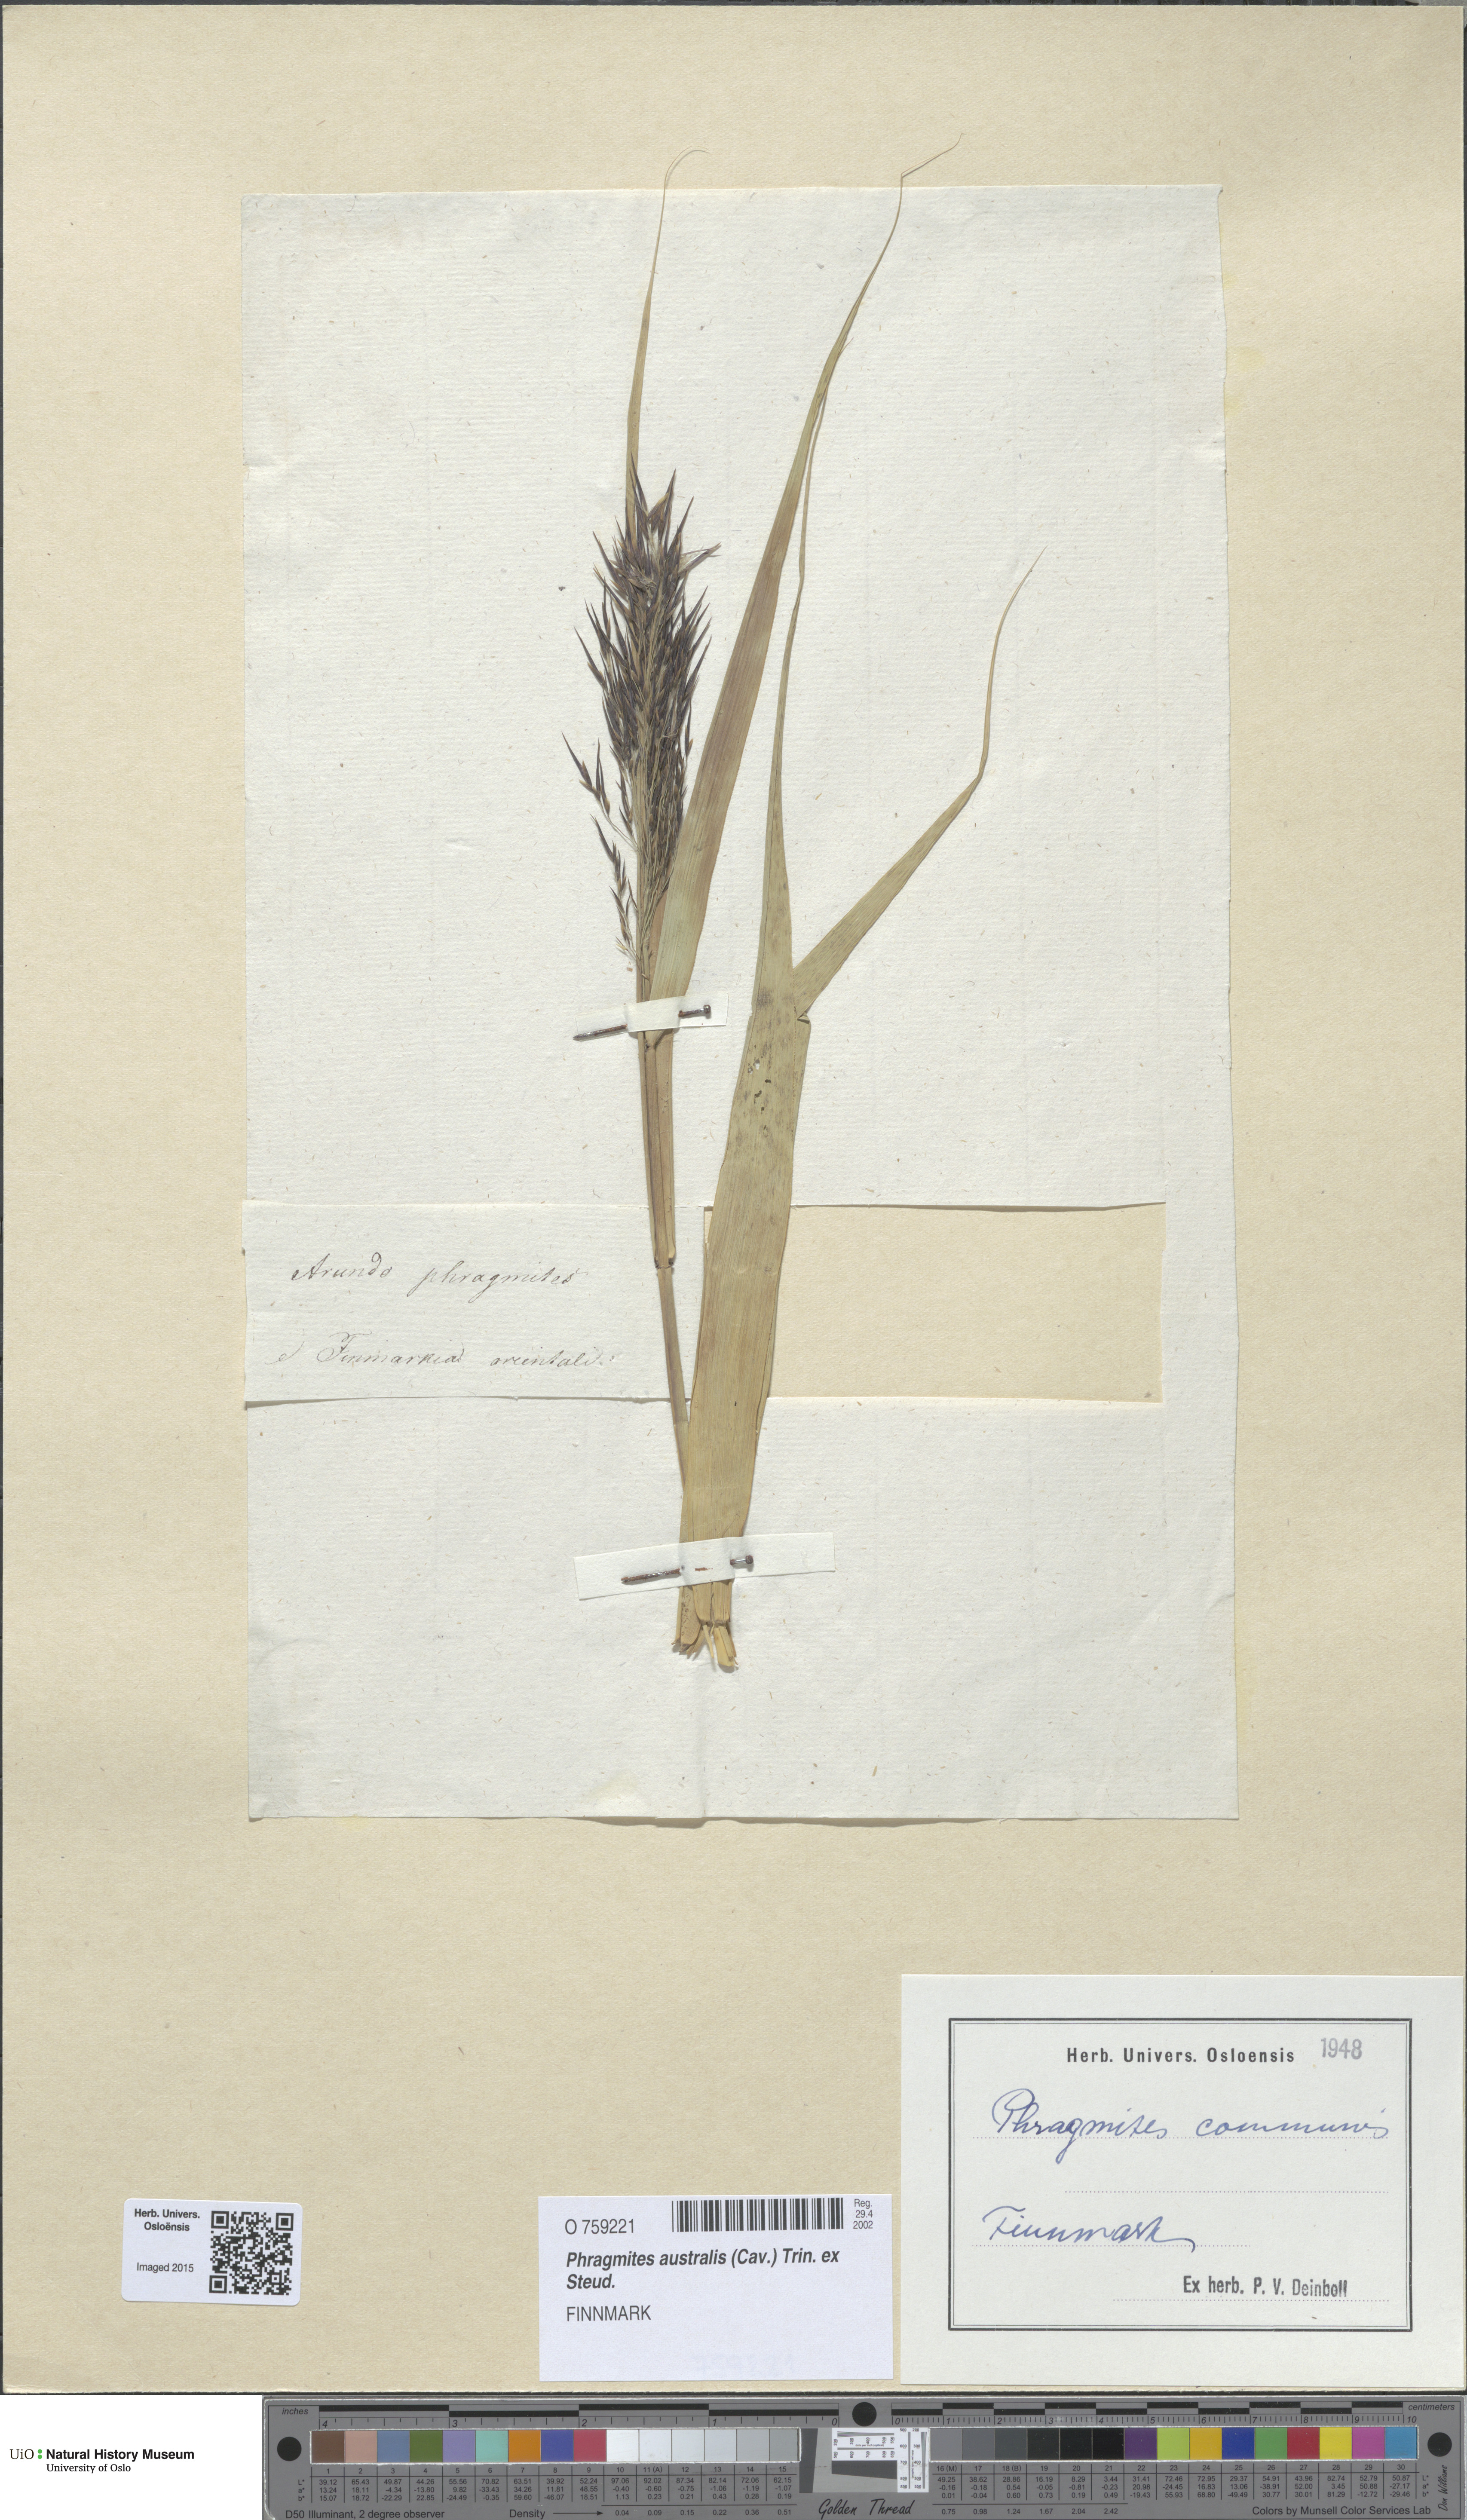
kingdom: Plantae
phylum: Tracheophyta
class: Liliopsida
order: Poales
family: Poaceae
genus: Phragmites
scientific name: Phragmites australis
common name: Common reed
